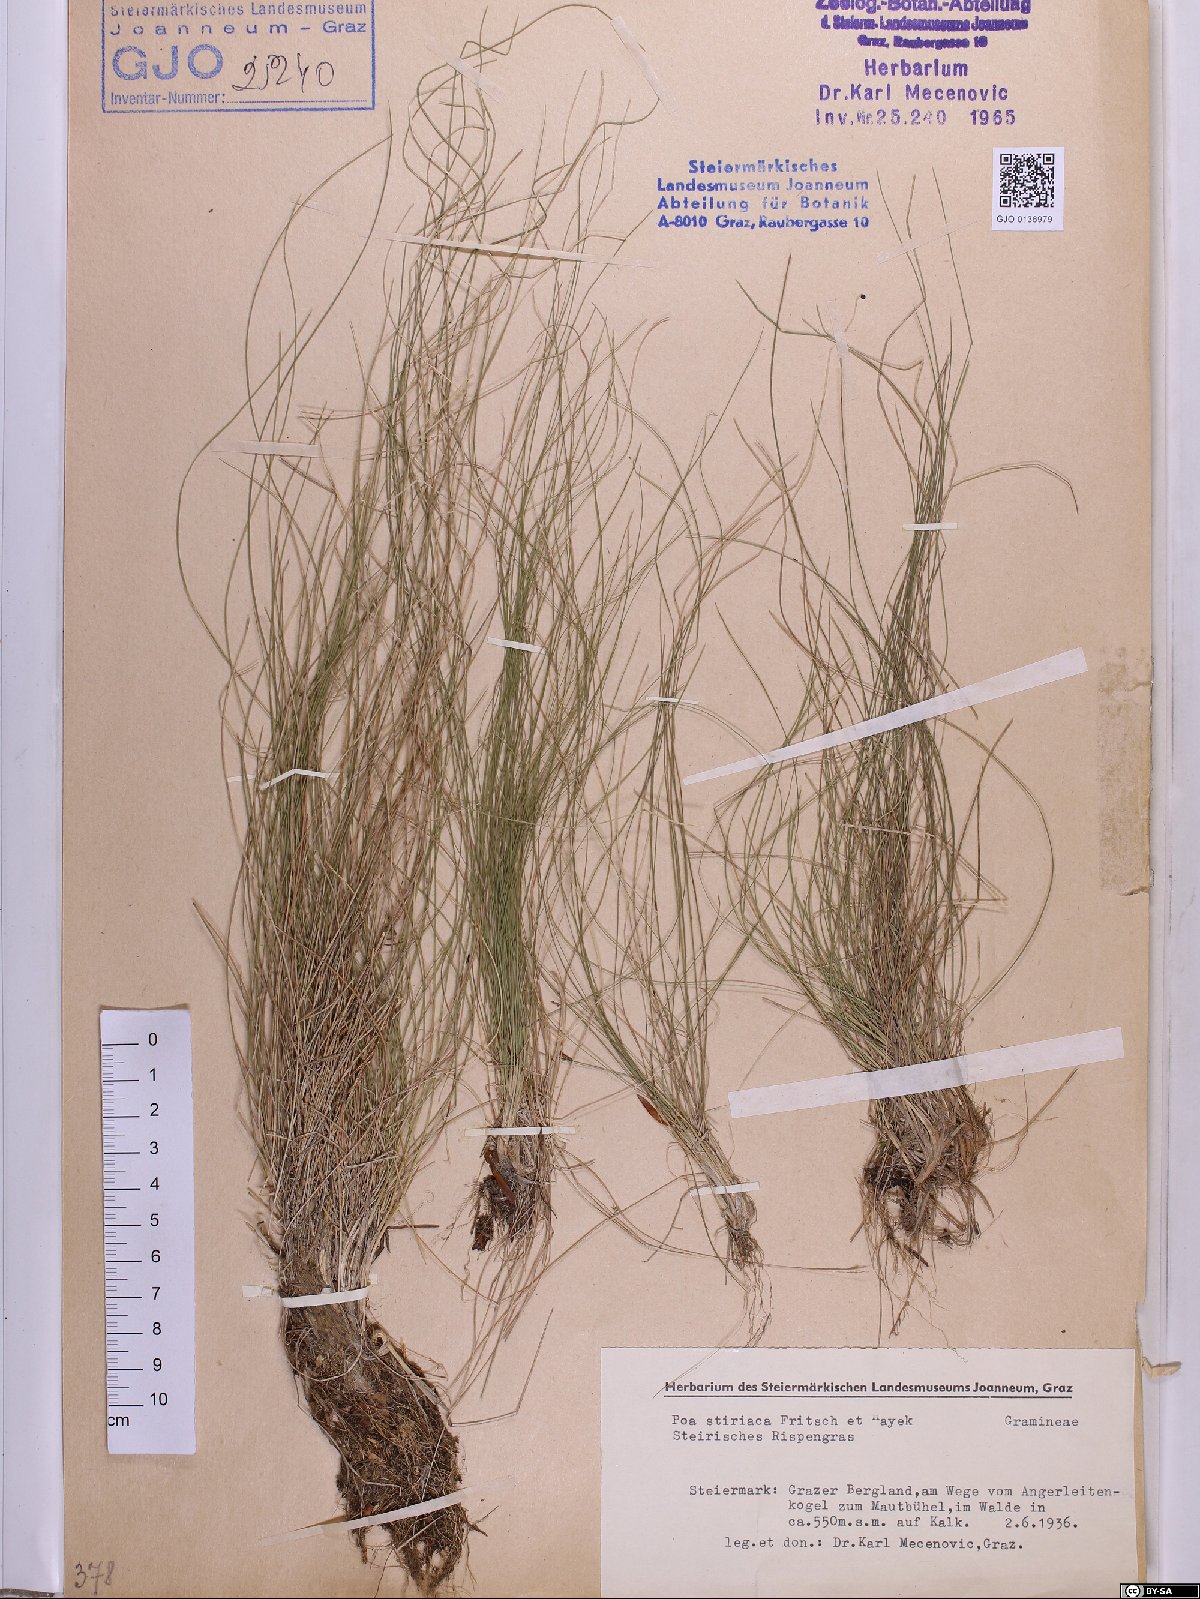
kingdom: Plantae
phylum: Tracheophyta
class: Liliopsida
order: Poales
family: Poaceae
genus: Poa
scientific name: Poa stiriaca
